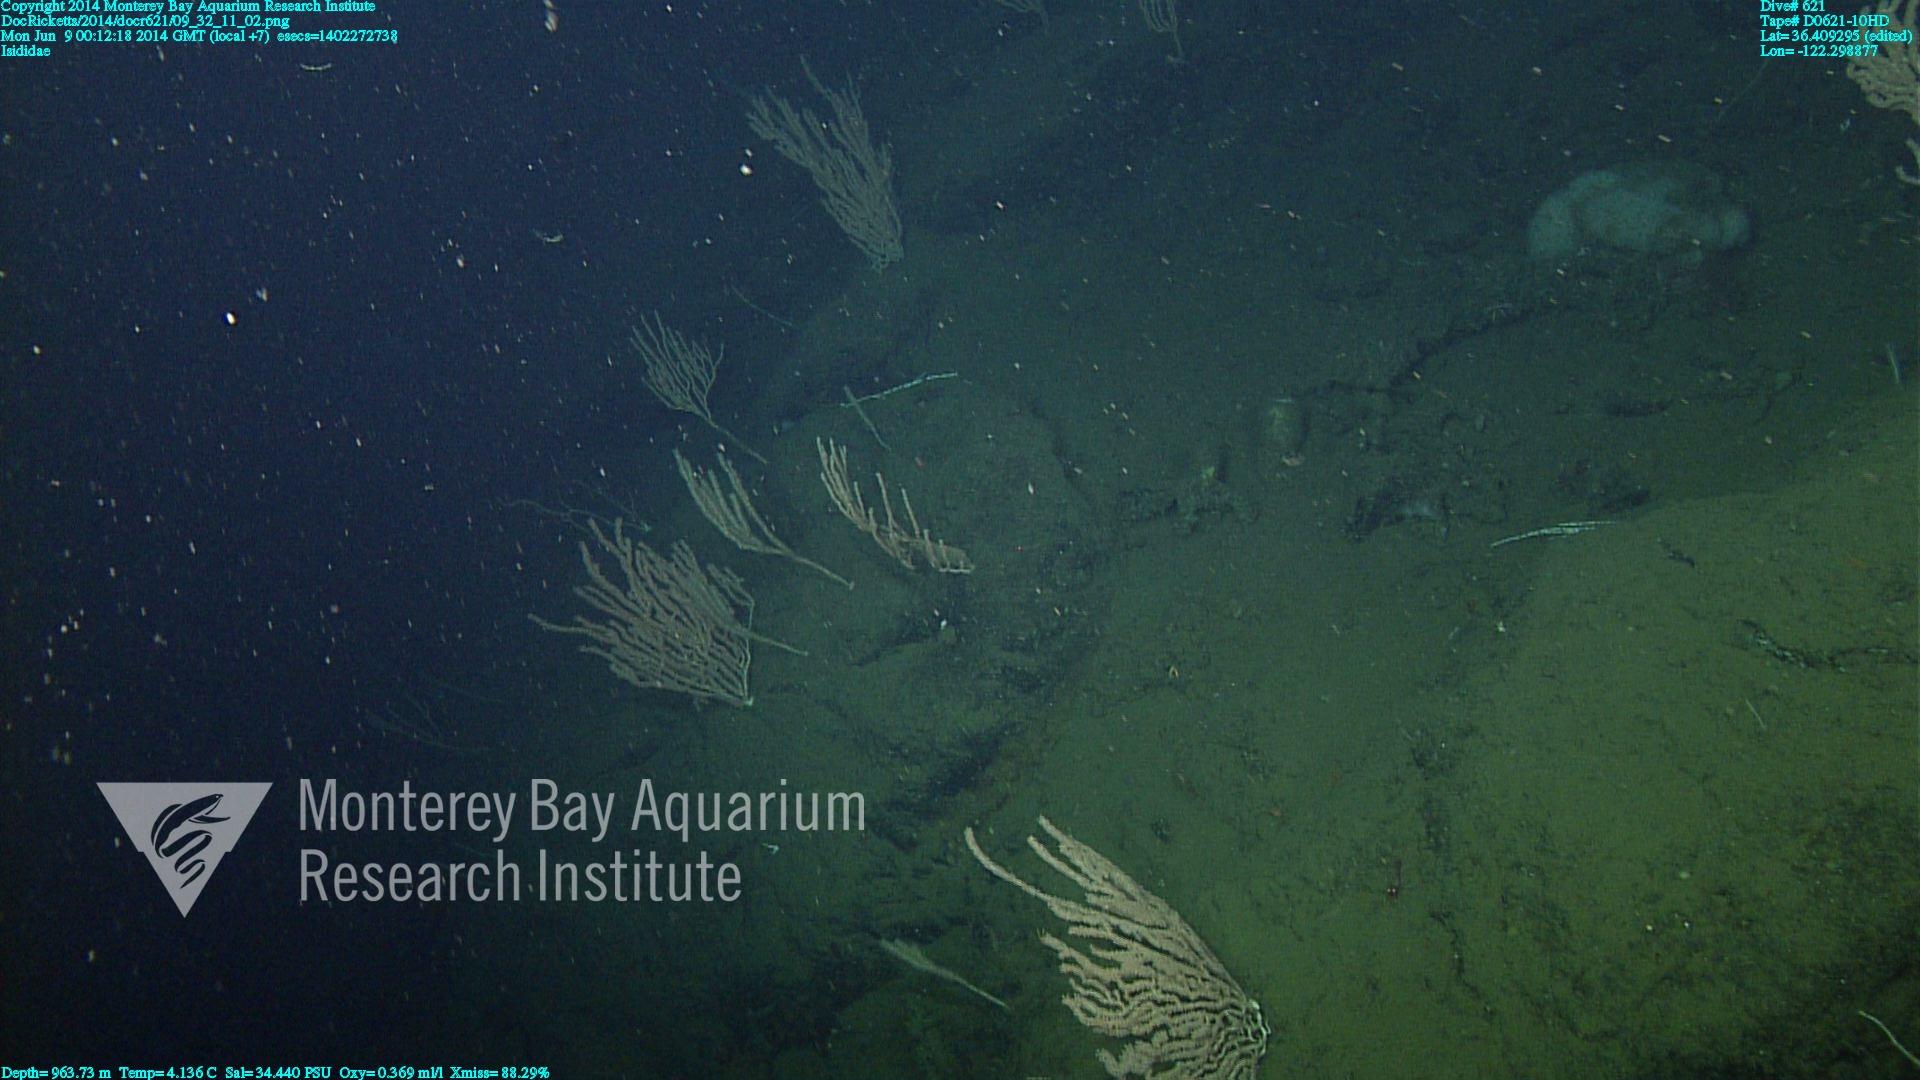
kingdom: Animalia
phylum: Cnidaria
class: Anthozoa
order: Scleralcyonacea
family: Keratoisididae
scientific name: Keratoisididae
